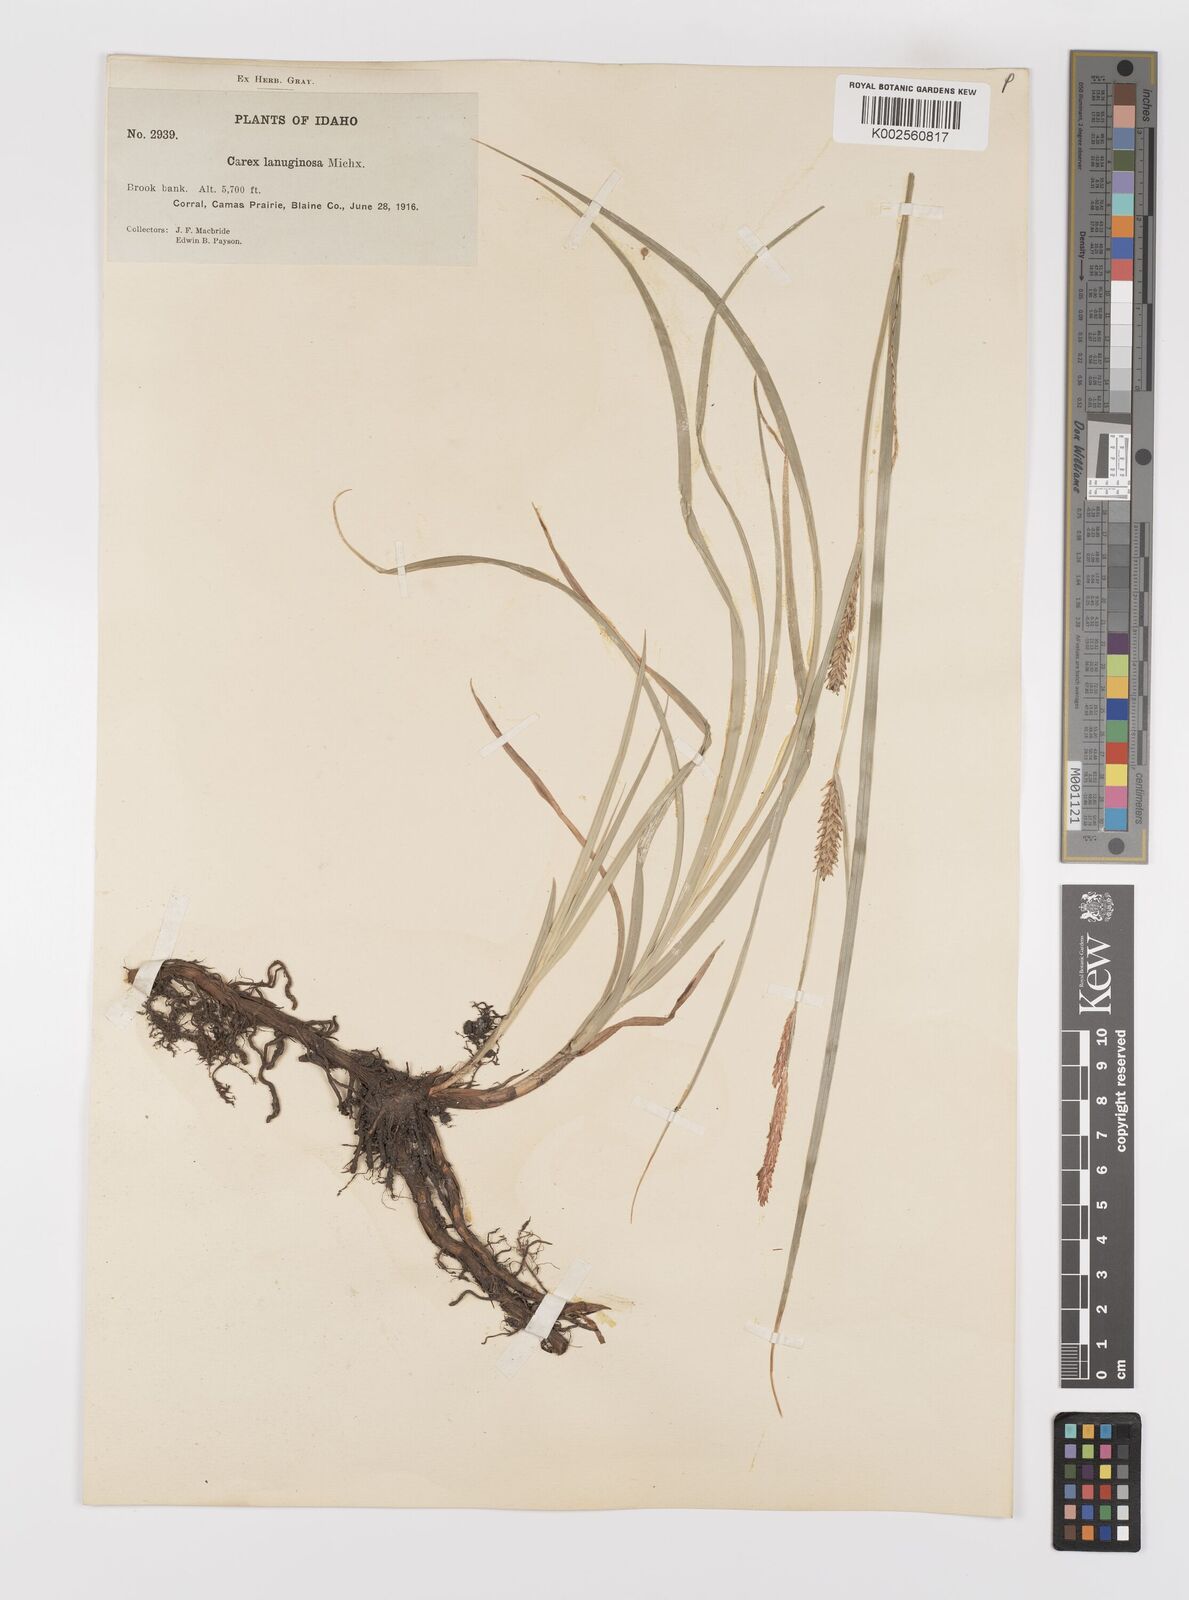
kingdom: Plantae
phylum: Tracheophyta
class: Liliopsida
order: Poales
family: Cyperaceae
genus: Carex
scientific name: Carex lasiocarpa
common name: Slender sedge
